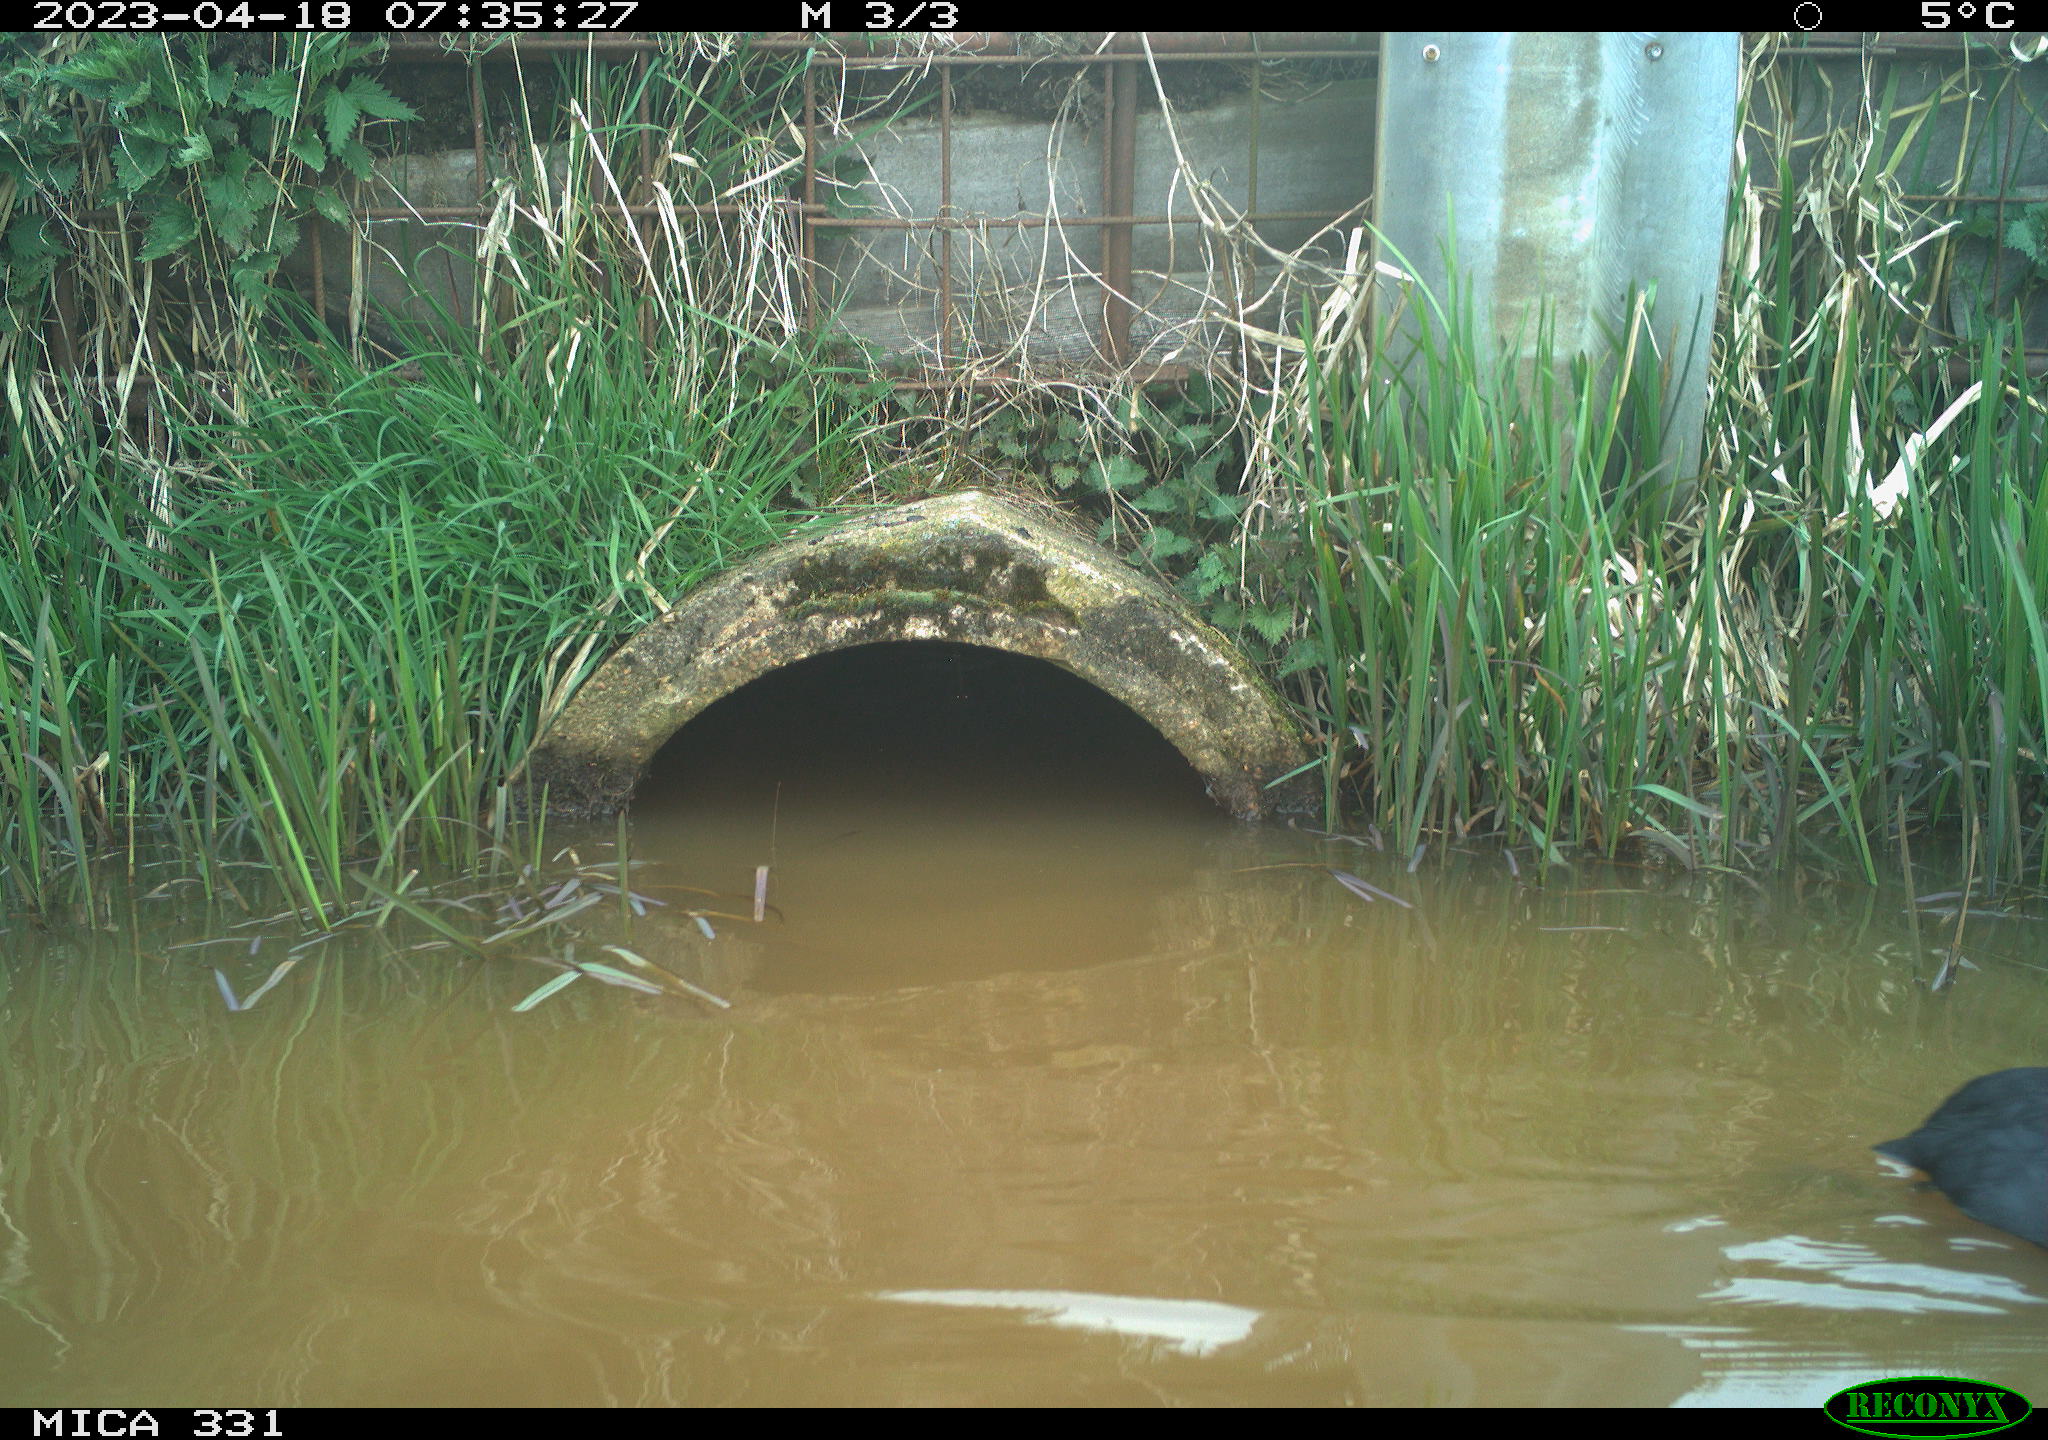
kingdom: Animalia
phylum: Chordata
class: Aves
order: Gruiformes
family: Rallidae
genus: Fulica
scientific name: Fulica atra
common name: Eurasian coot
